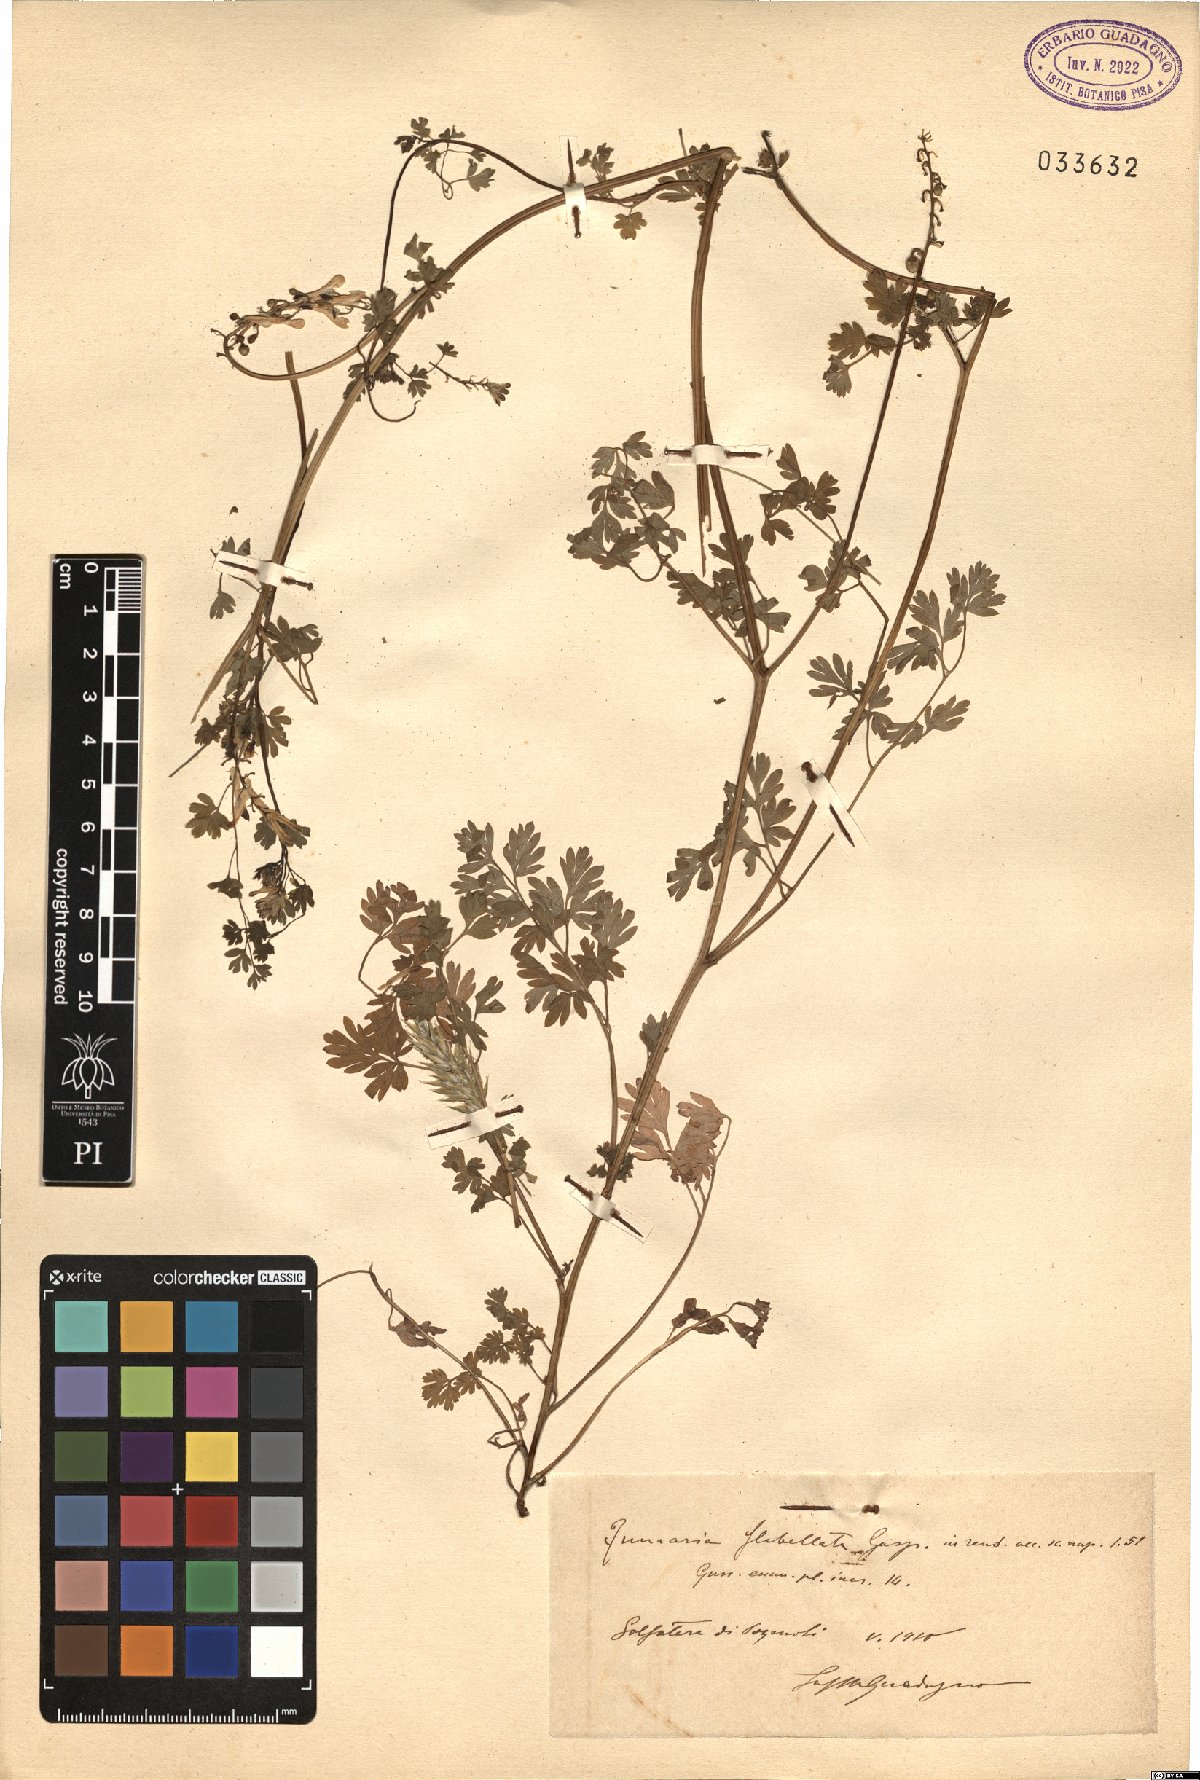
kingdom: Plantae
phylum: Tracheophyta
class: Magnoliopsida
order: Ranunculales
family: Papaveraceae
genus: Fumaria
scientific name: Fumaria flabellata
